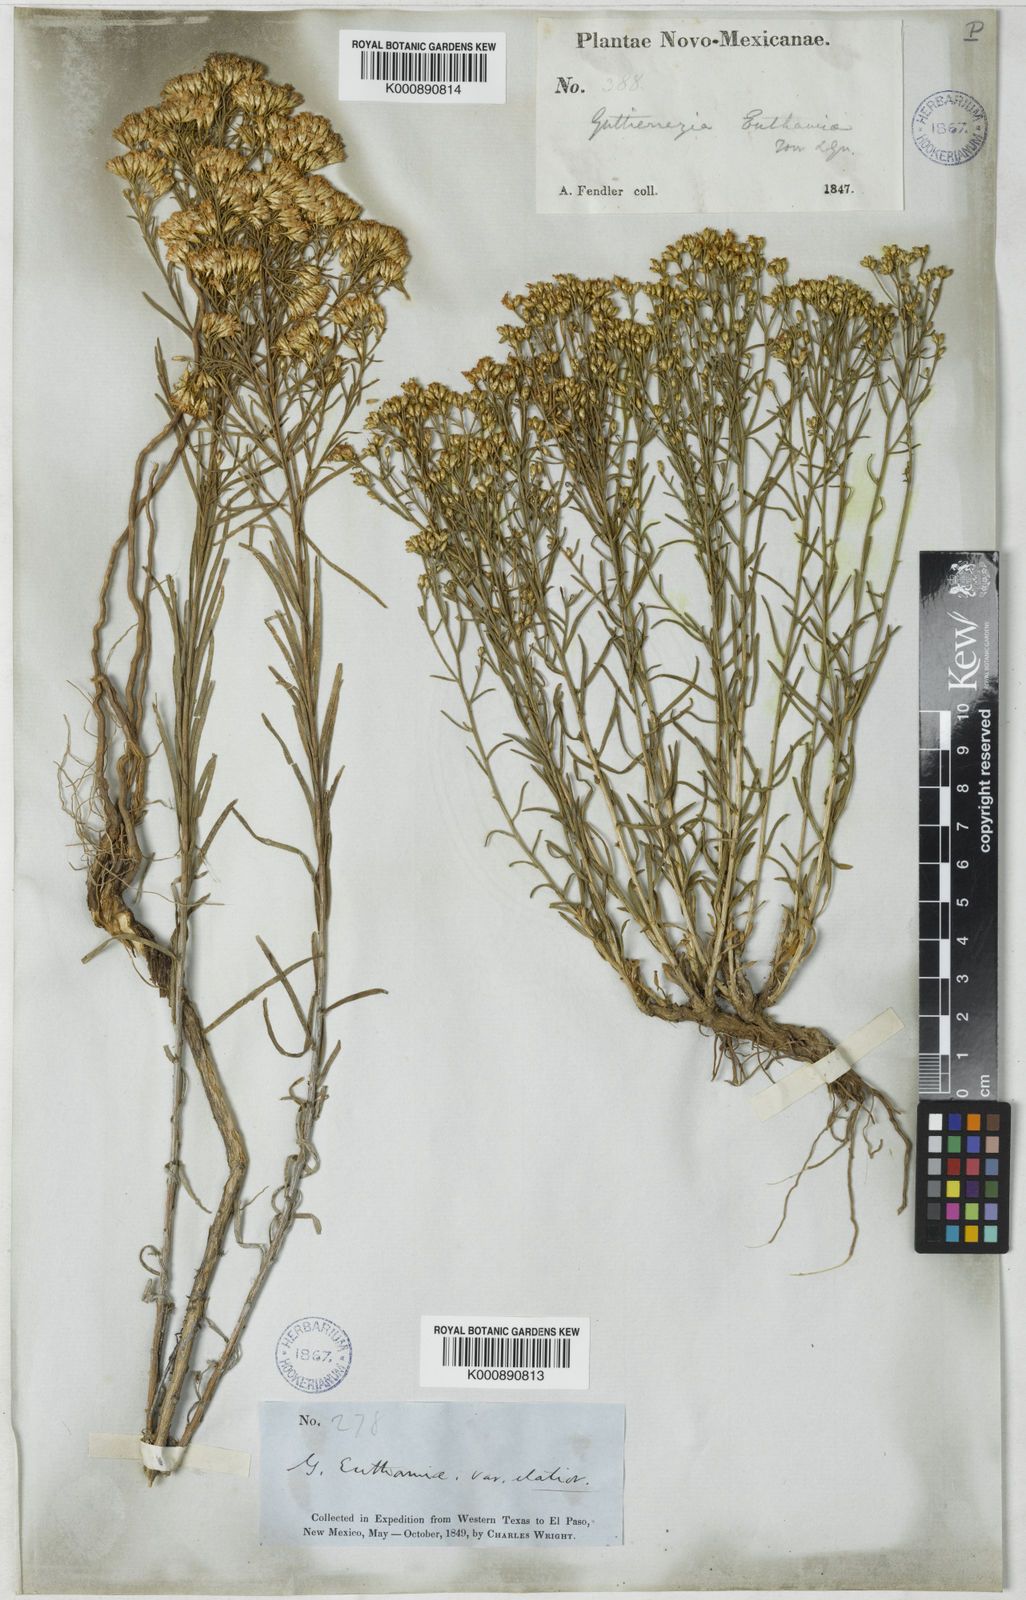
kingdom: Plantae
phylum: Tracheophyta
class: Magnoliopsida
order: Asterales
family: Asteraceae
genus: Gutierrezia
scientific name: Gutierrezia microcephala
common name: Thread snakeweed
